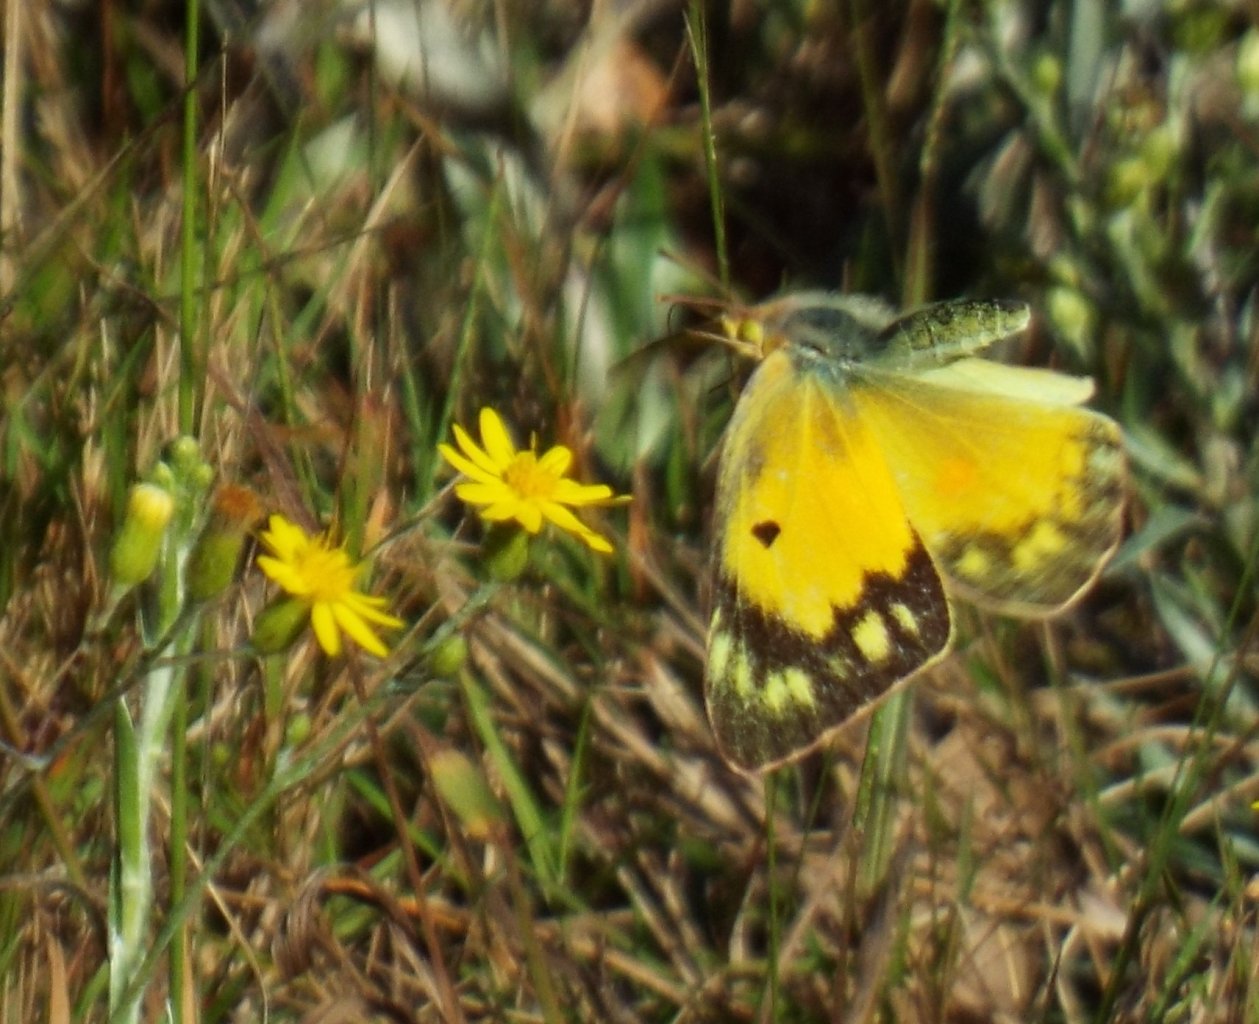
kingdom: Animalia
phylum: Arthropoda
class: Insecta
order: Lepidoptera
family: Pieridae
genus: Colias
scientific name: Colias eurytheme
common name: Orange Sulphur
